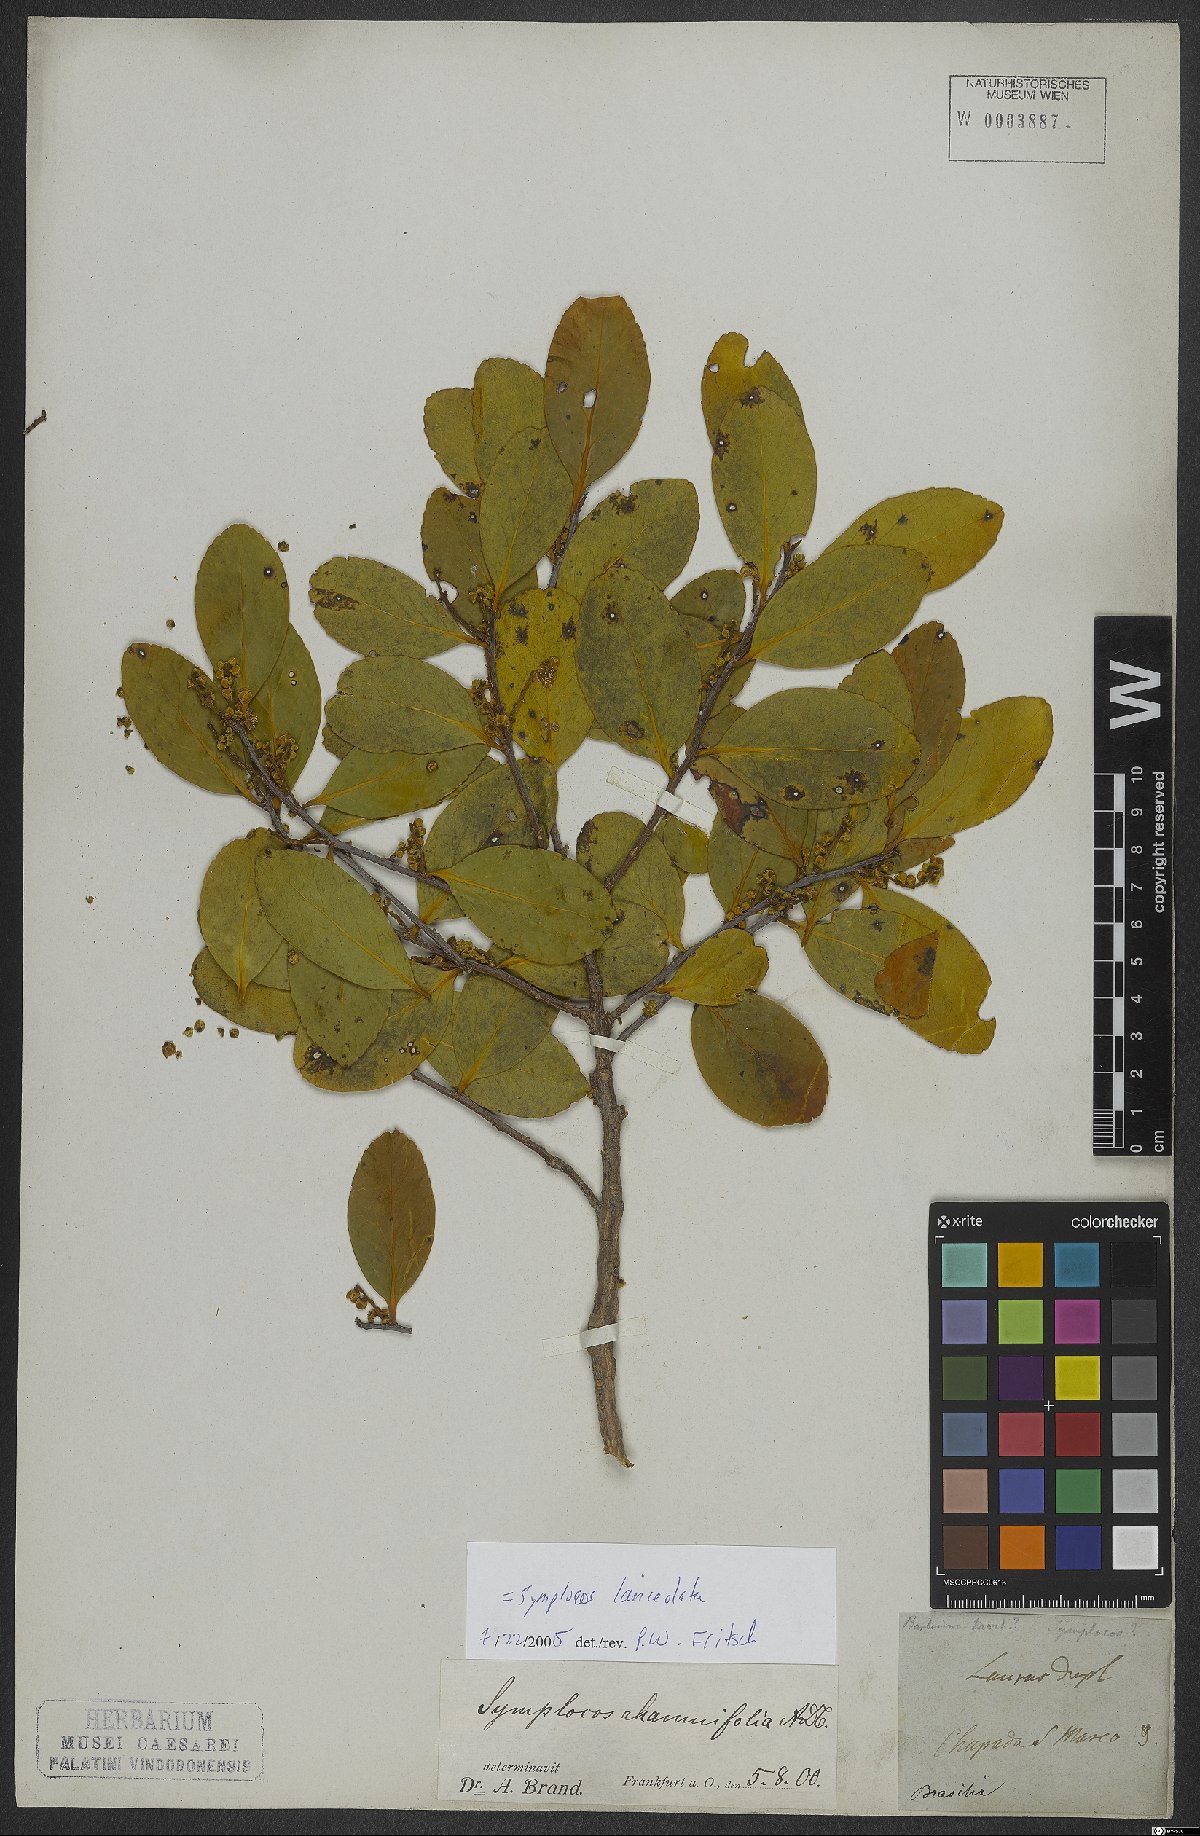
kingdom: Plantae
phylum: Tracheophyta
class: Magnoliopsida
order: Ericales
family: Symplocaceae
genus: Symplocos
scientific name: Symplocos oblongifolia
